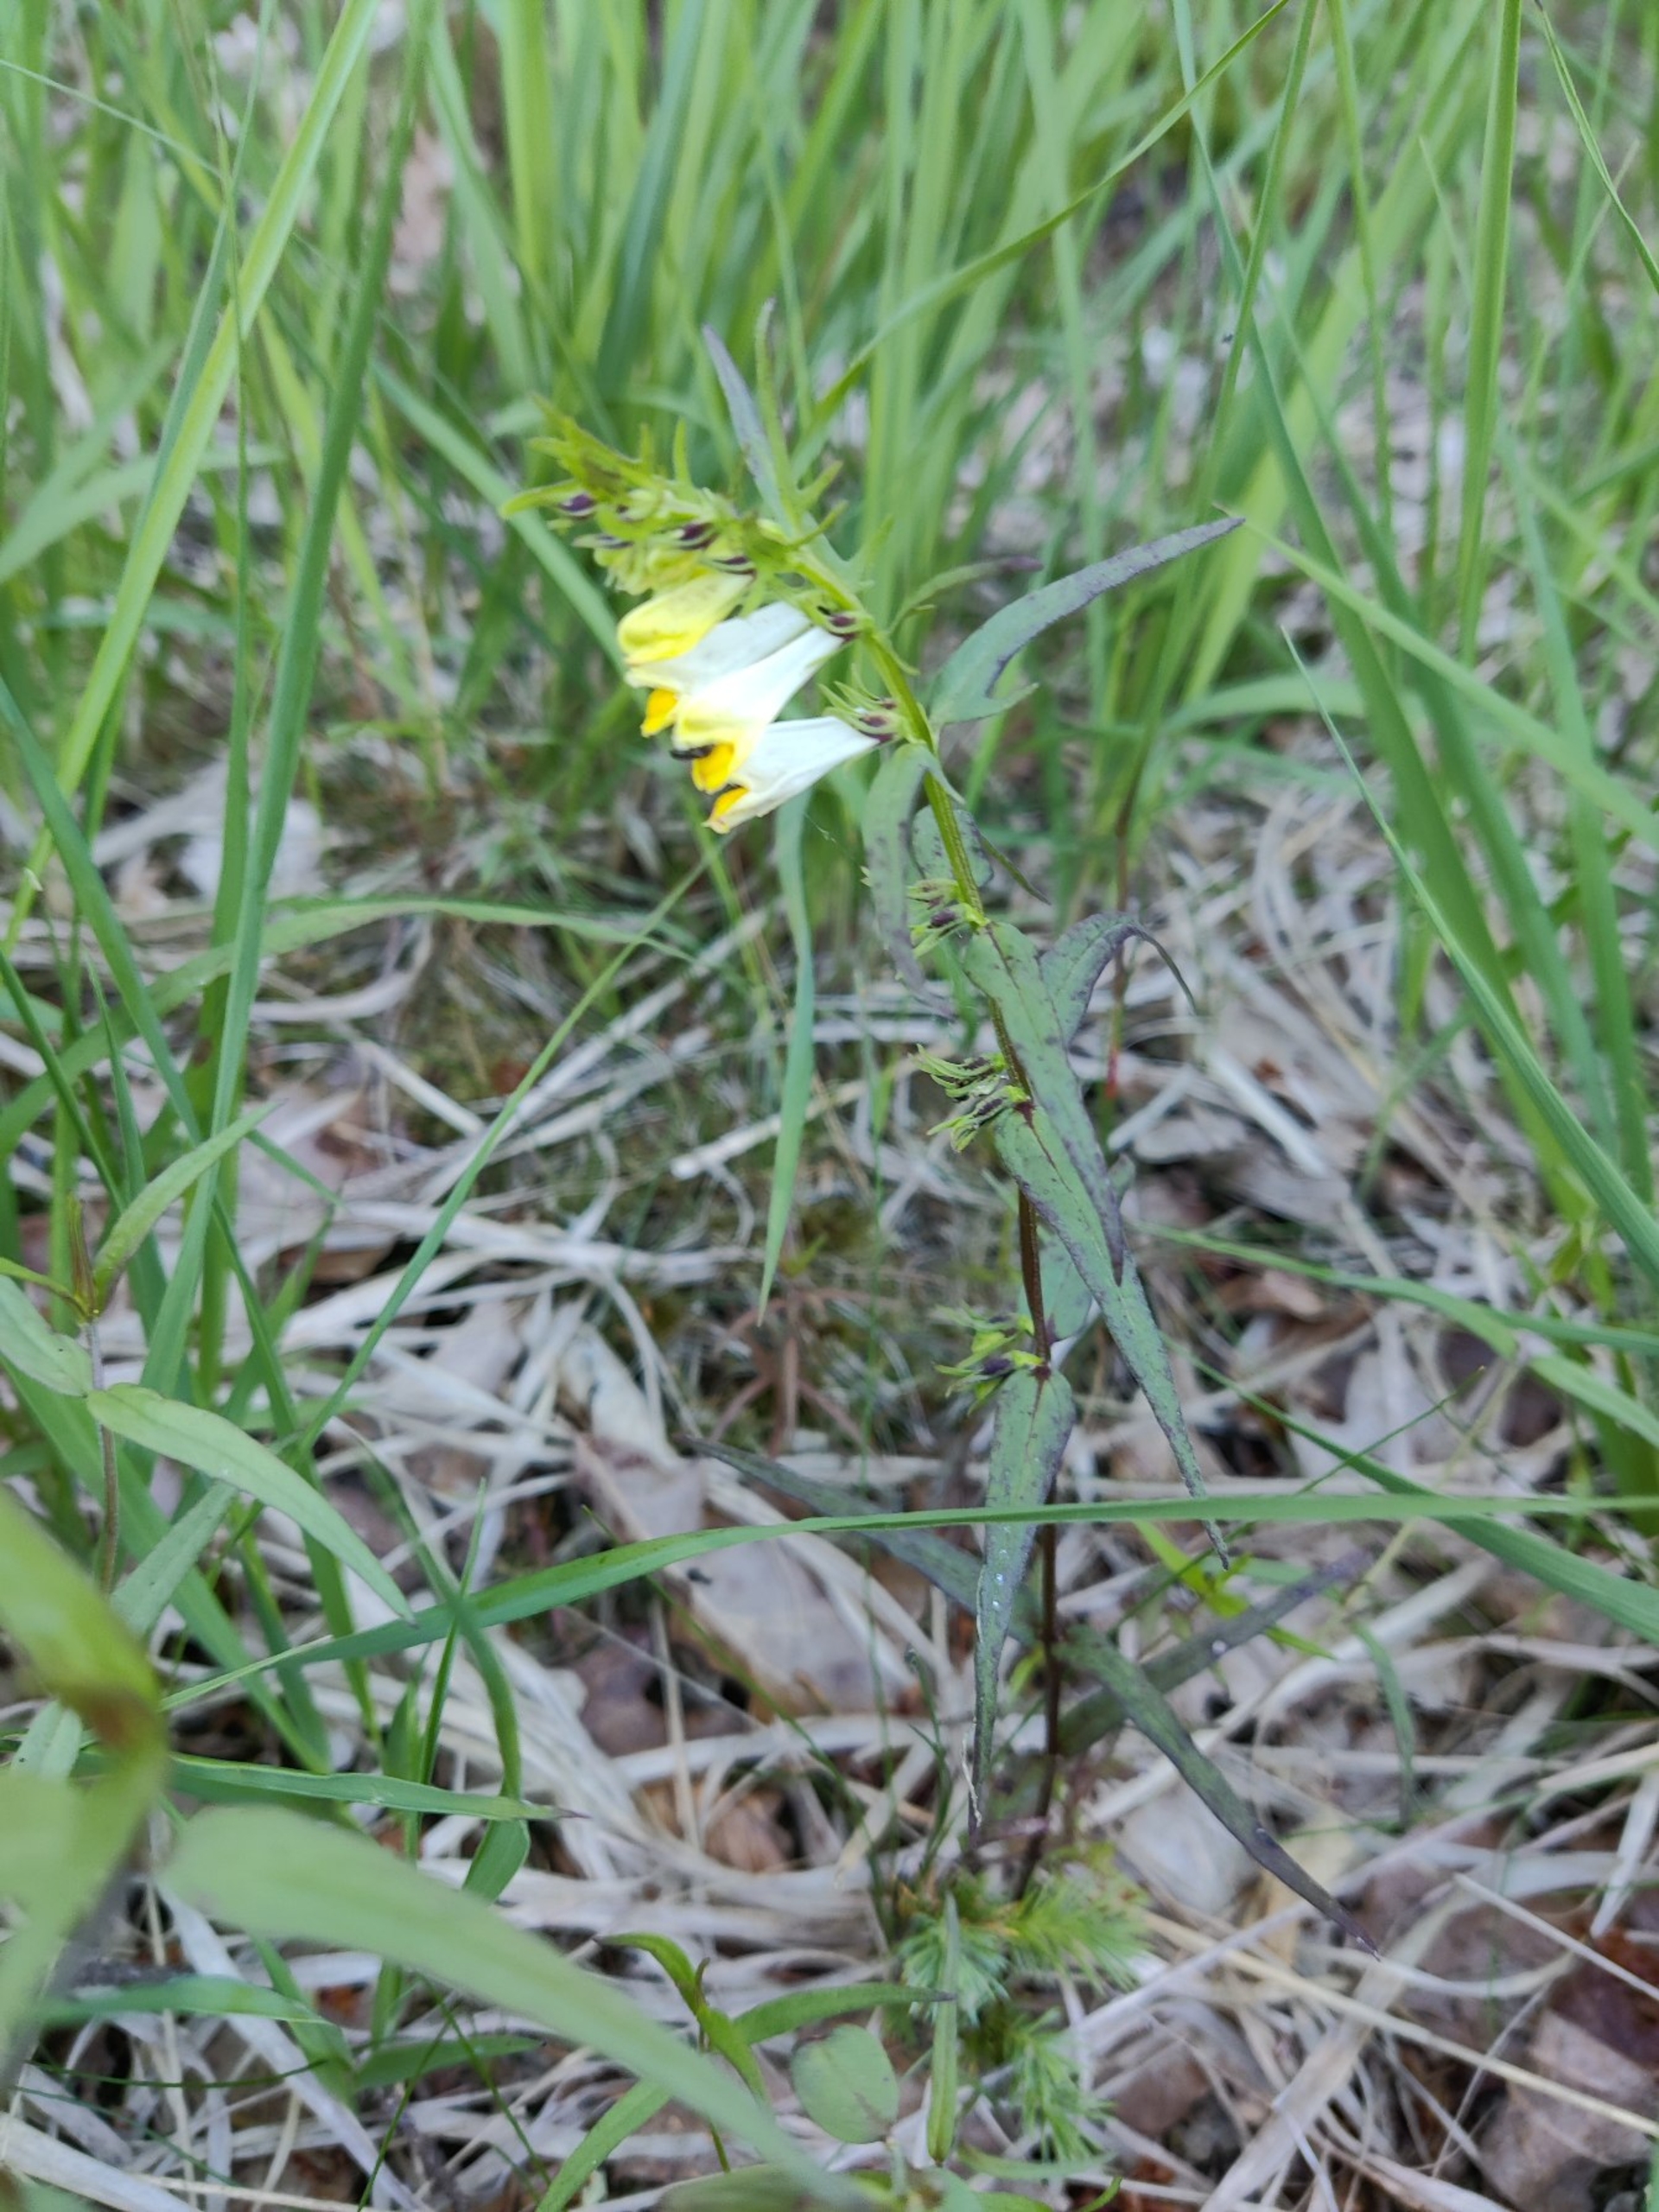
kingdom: Plantae
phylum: Tracheophyta
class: Magnoliopsida
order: Lamiales
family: Orobanchaceae
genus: Melampyrum
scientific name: Melampyrum pratense
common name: Almindelig kohvede
